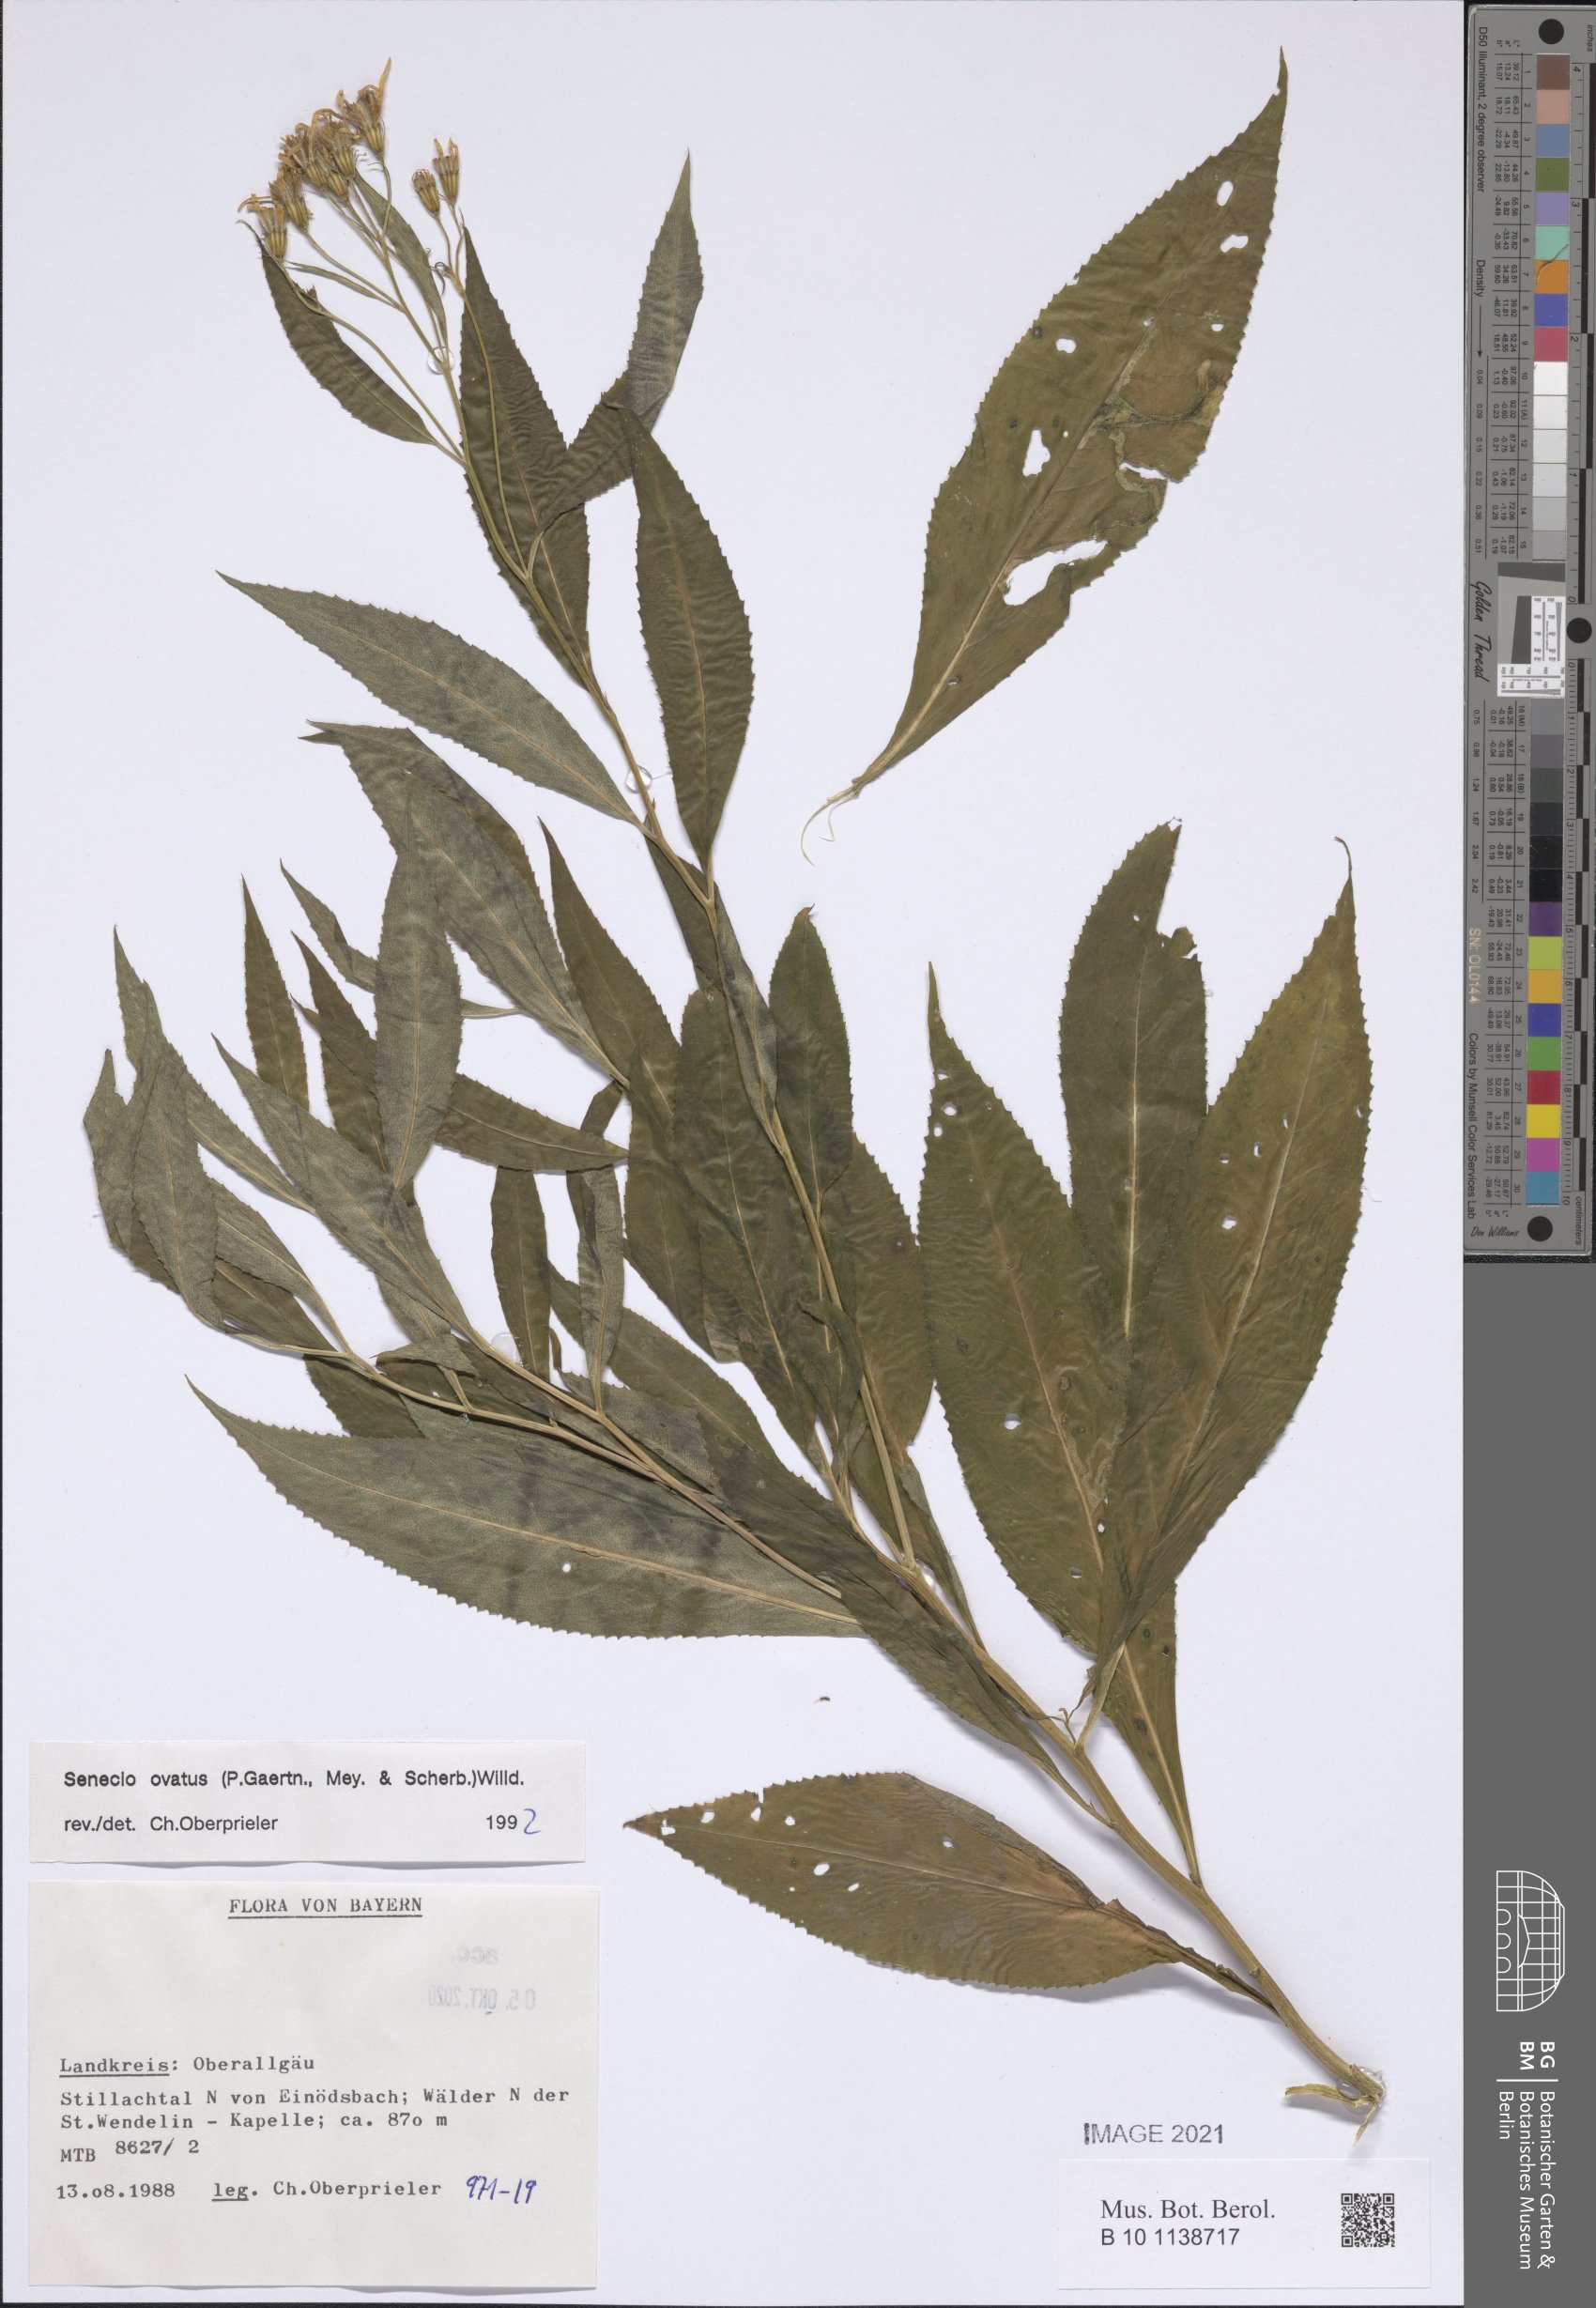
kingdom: Plantae
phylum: Tracheophyta
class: Magnoliopsida
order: Asterales
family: Asteraceae
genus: Senecio
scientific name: Senecio ovatus
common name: Wood ragwort
